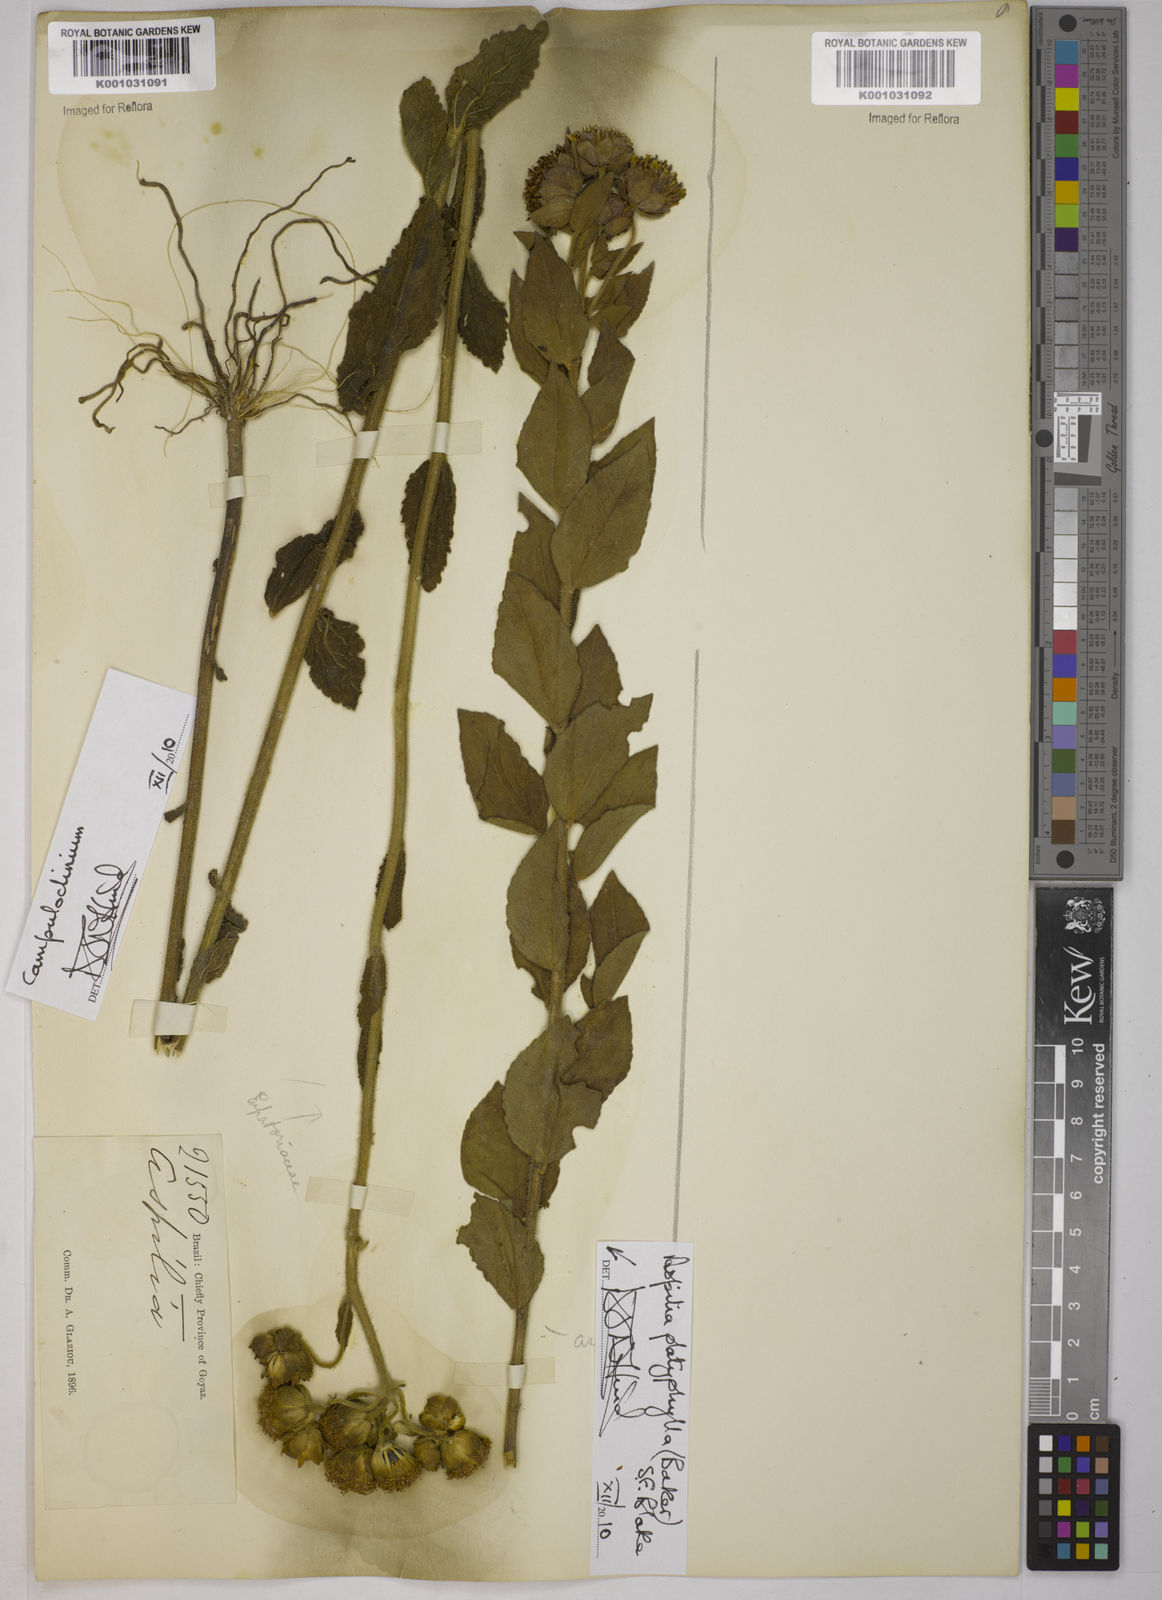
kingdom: Plantae
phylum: Tracheophyta
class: Magnoliopsida
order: Asterales
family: Asteraceae
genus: Aspilia
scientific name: Aspilia
